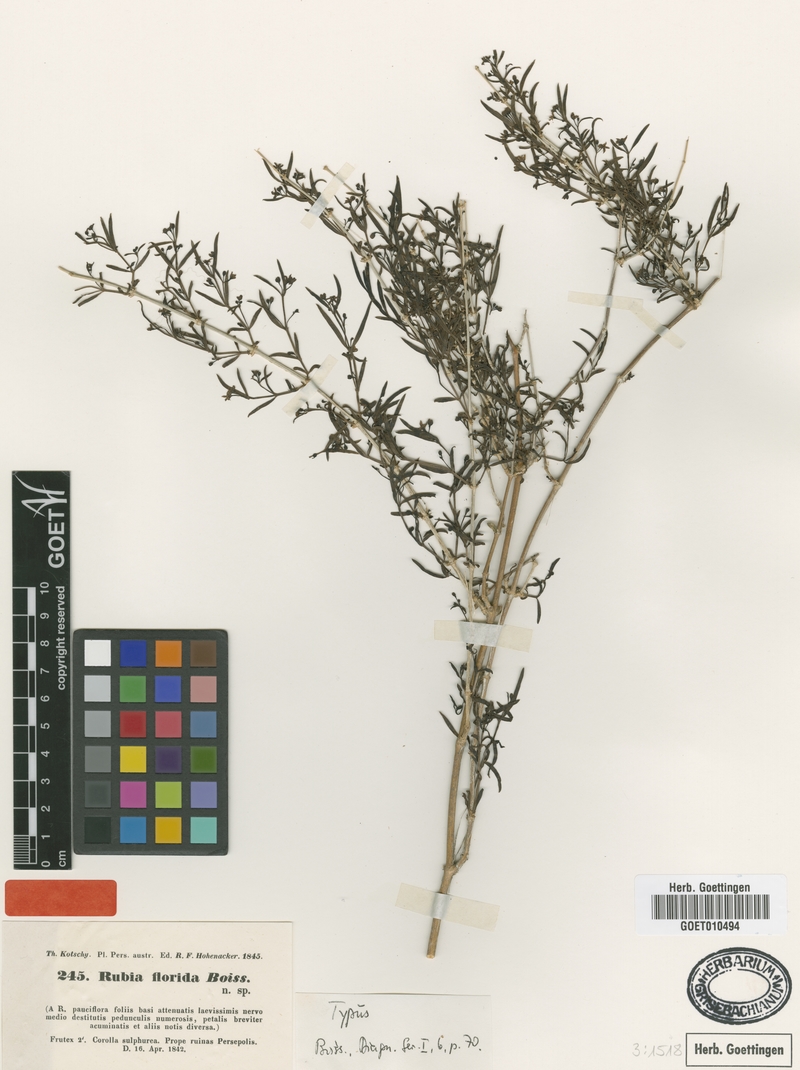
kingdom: Plantae
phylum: Tracheophyta
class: Magnoliopsida
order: Gentianales
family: Rubiaceae
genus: Rubia
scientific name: Rubia florida
